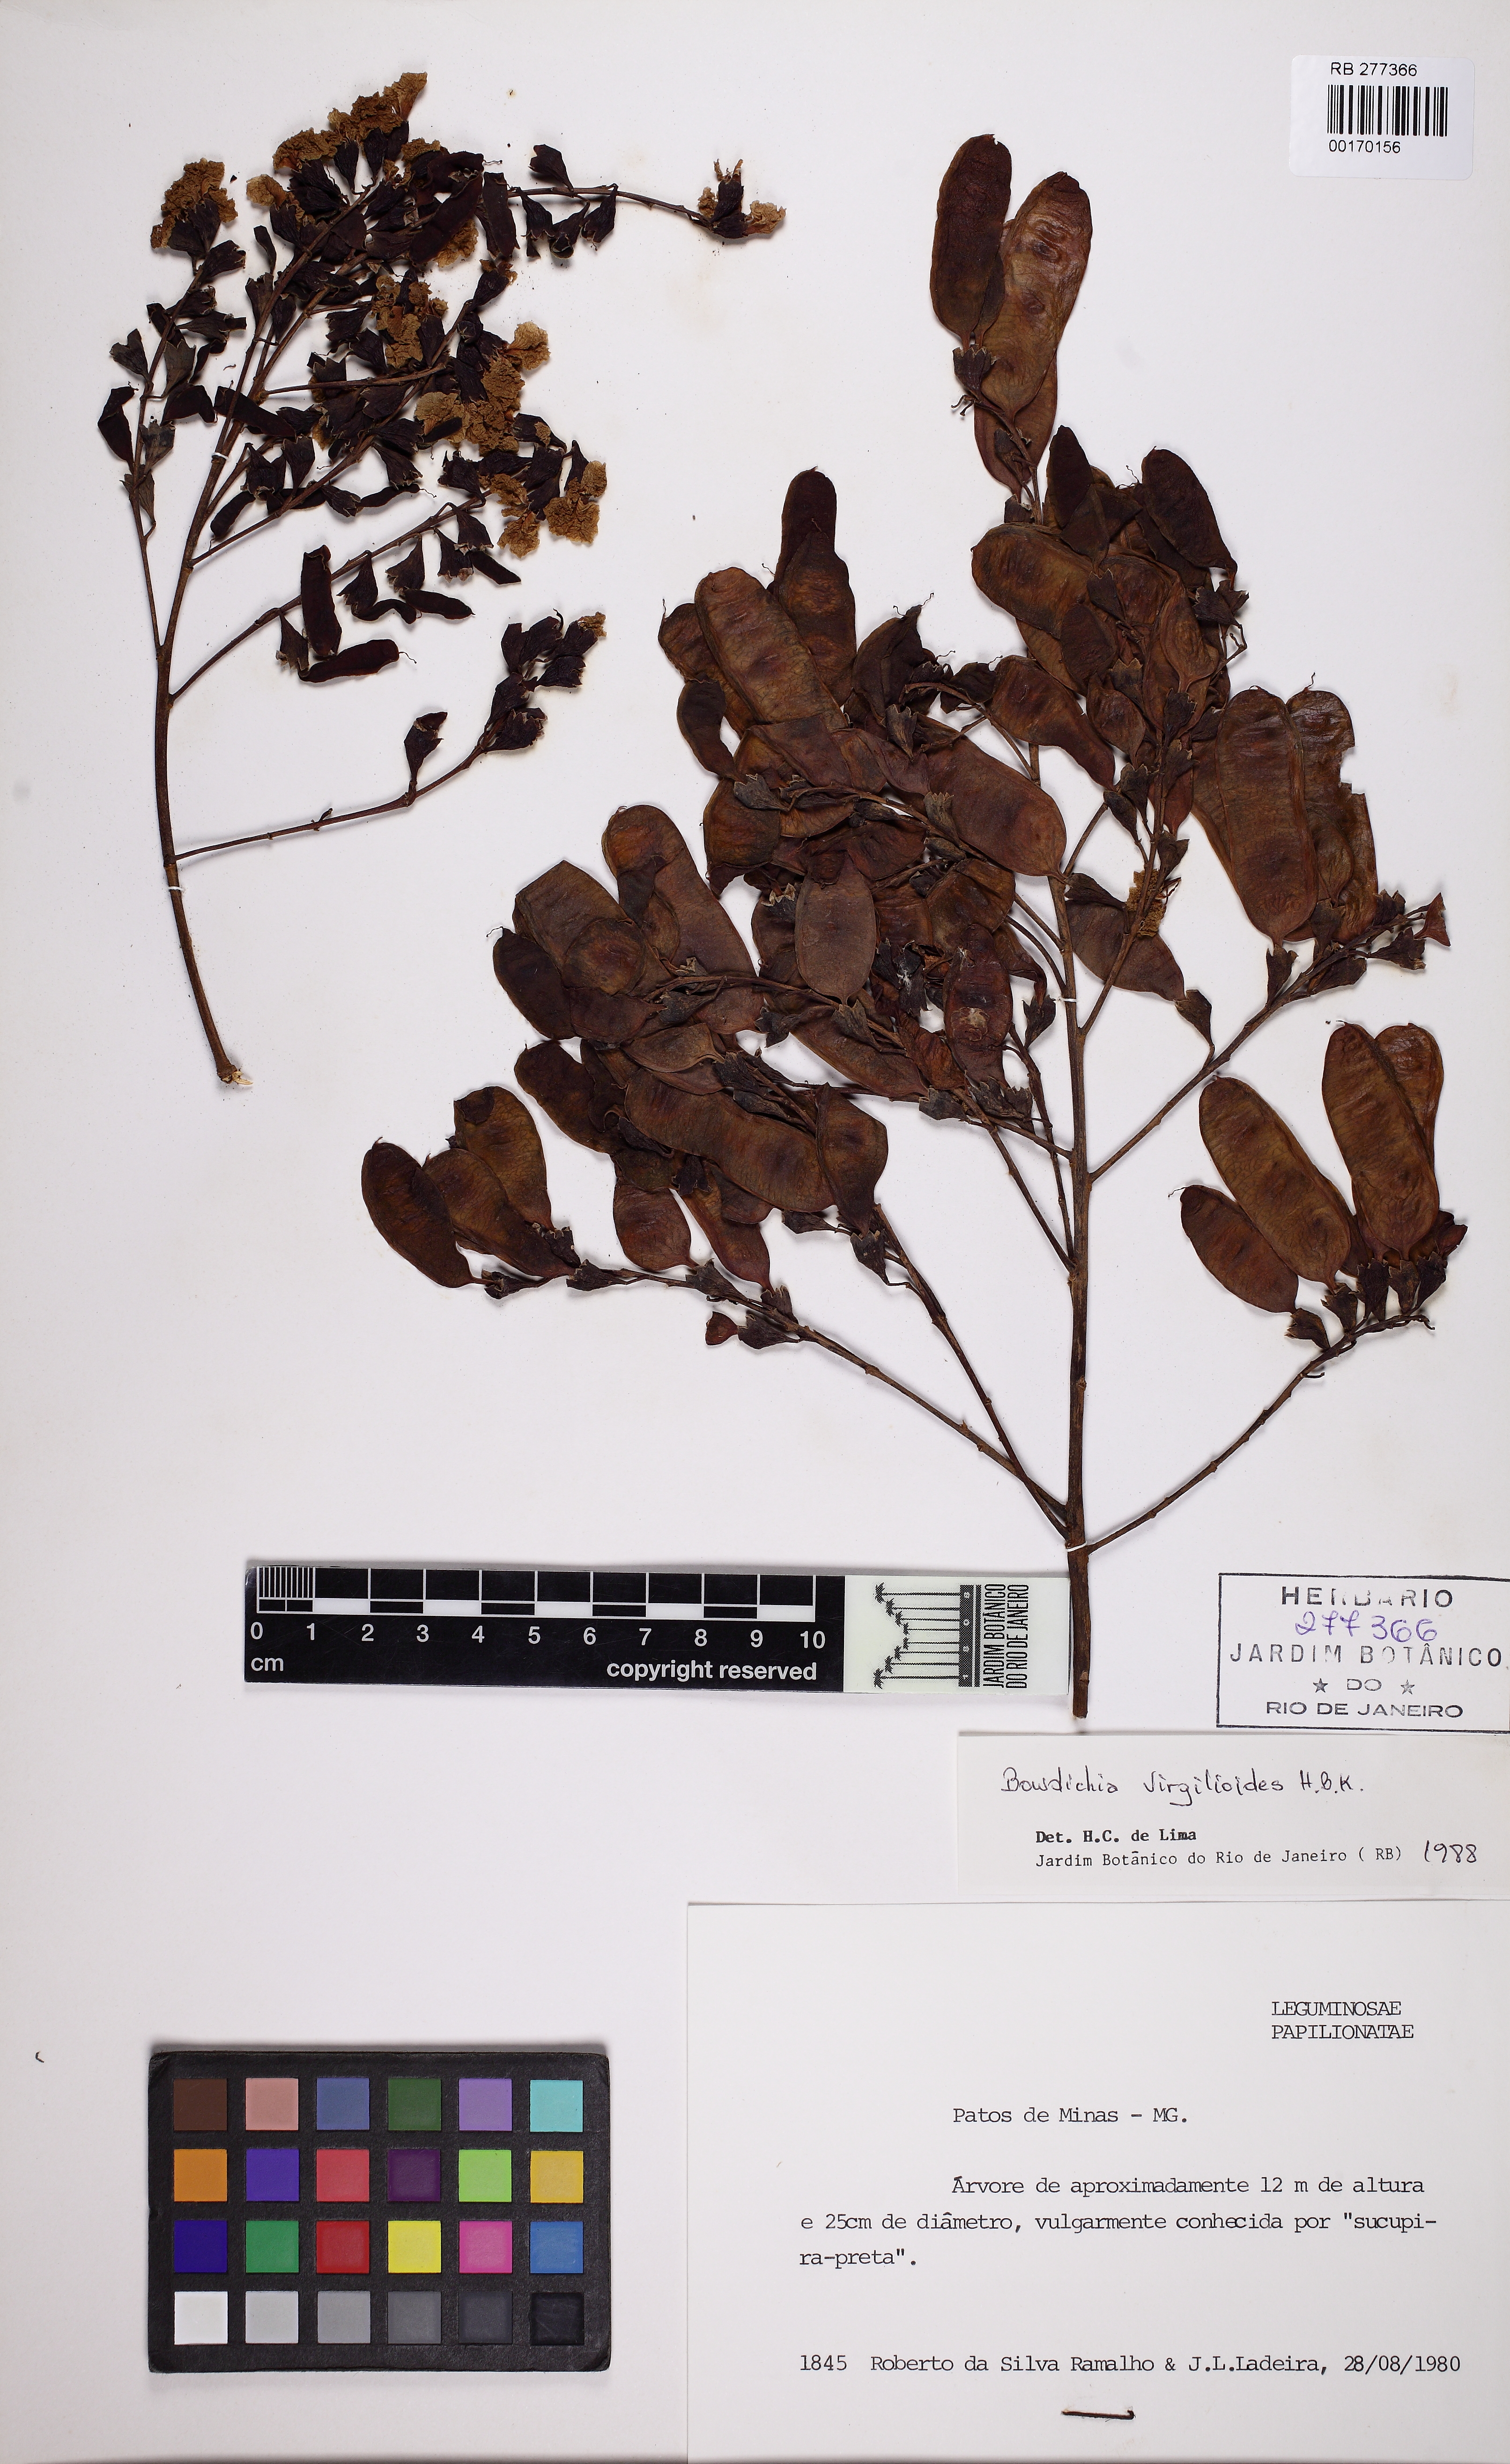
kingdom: Plantae
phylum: Tracheophyta
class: Magnoliopsida
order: Fabales
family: Fabaceae
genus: Bowdichia
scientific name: Bowdichia virgilioides
